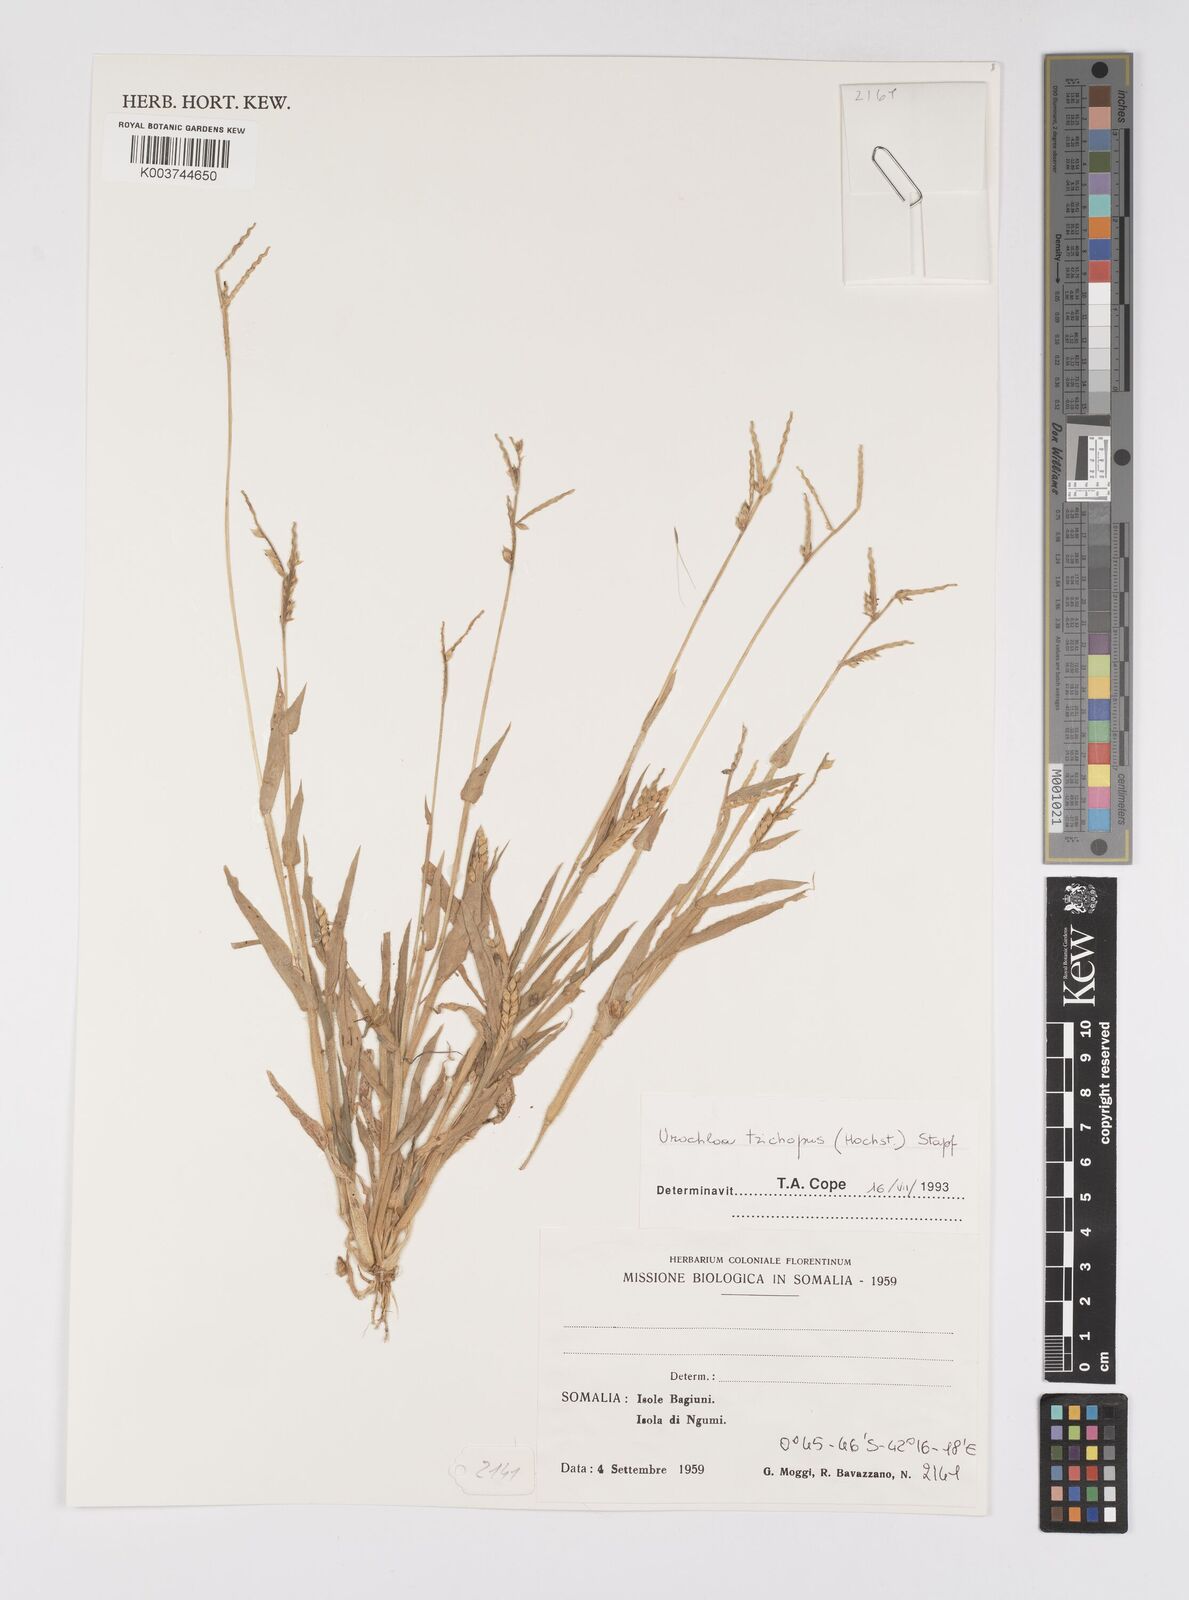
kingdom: Plantae
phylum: Tracheophyta
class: Liliopsida
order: Poales
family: Poaceae
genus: Urochloa
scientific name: Urochloa trichopus
